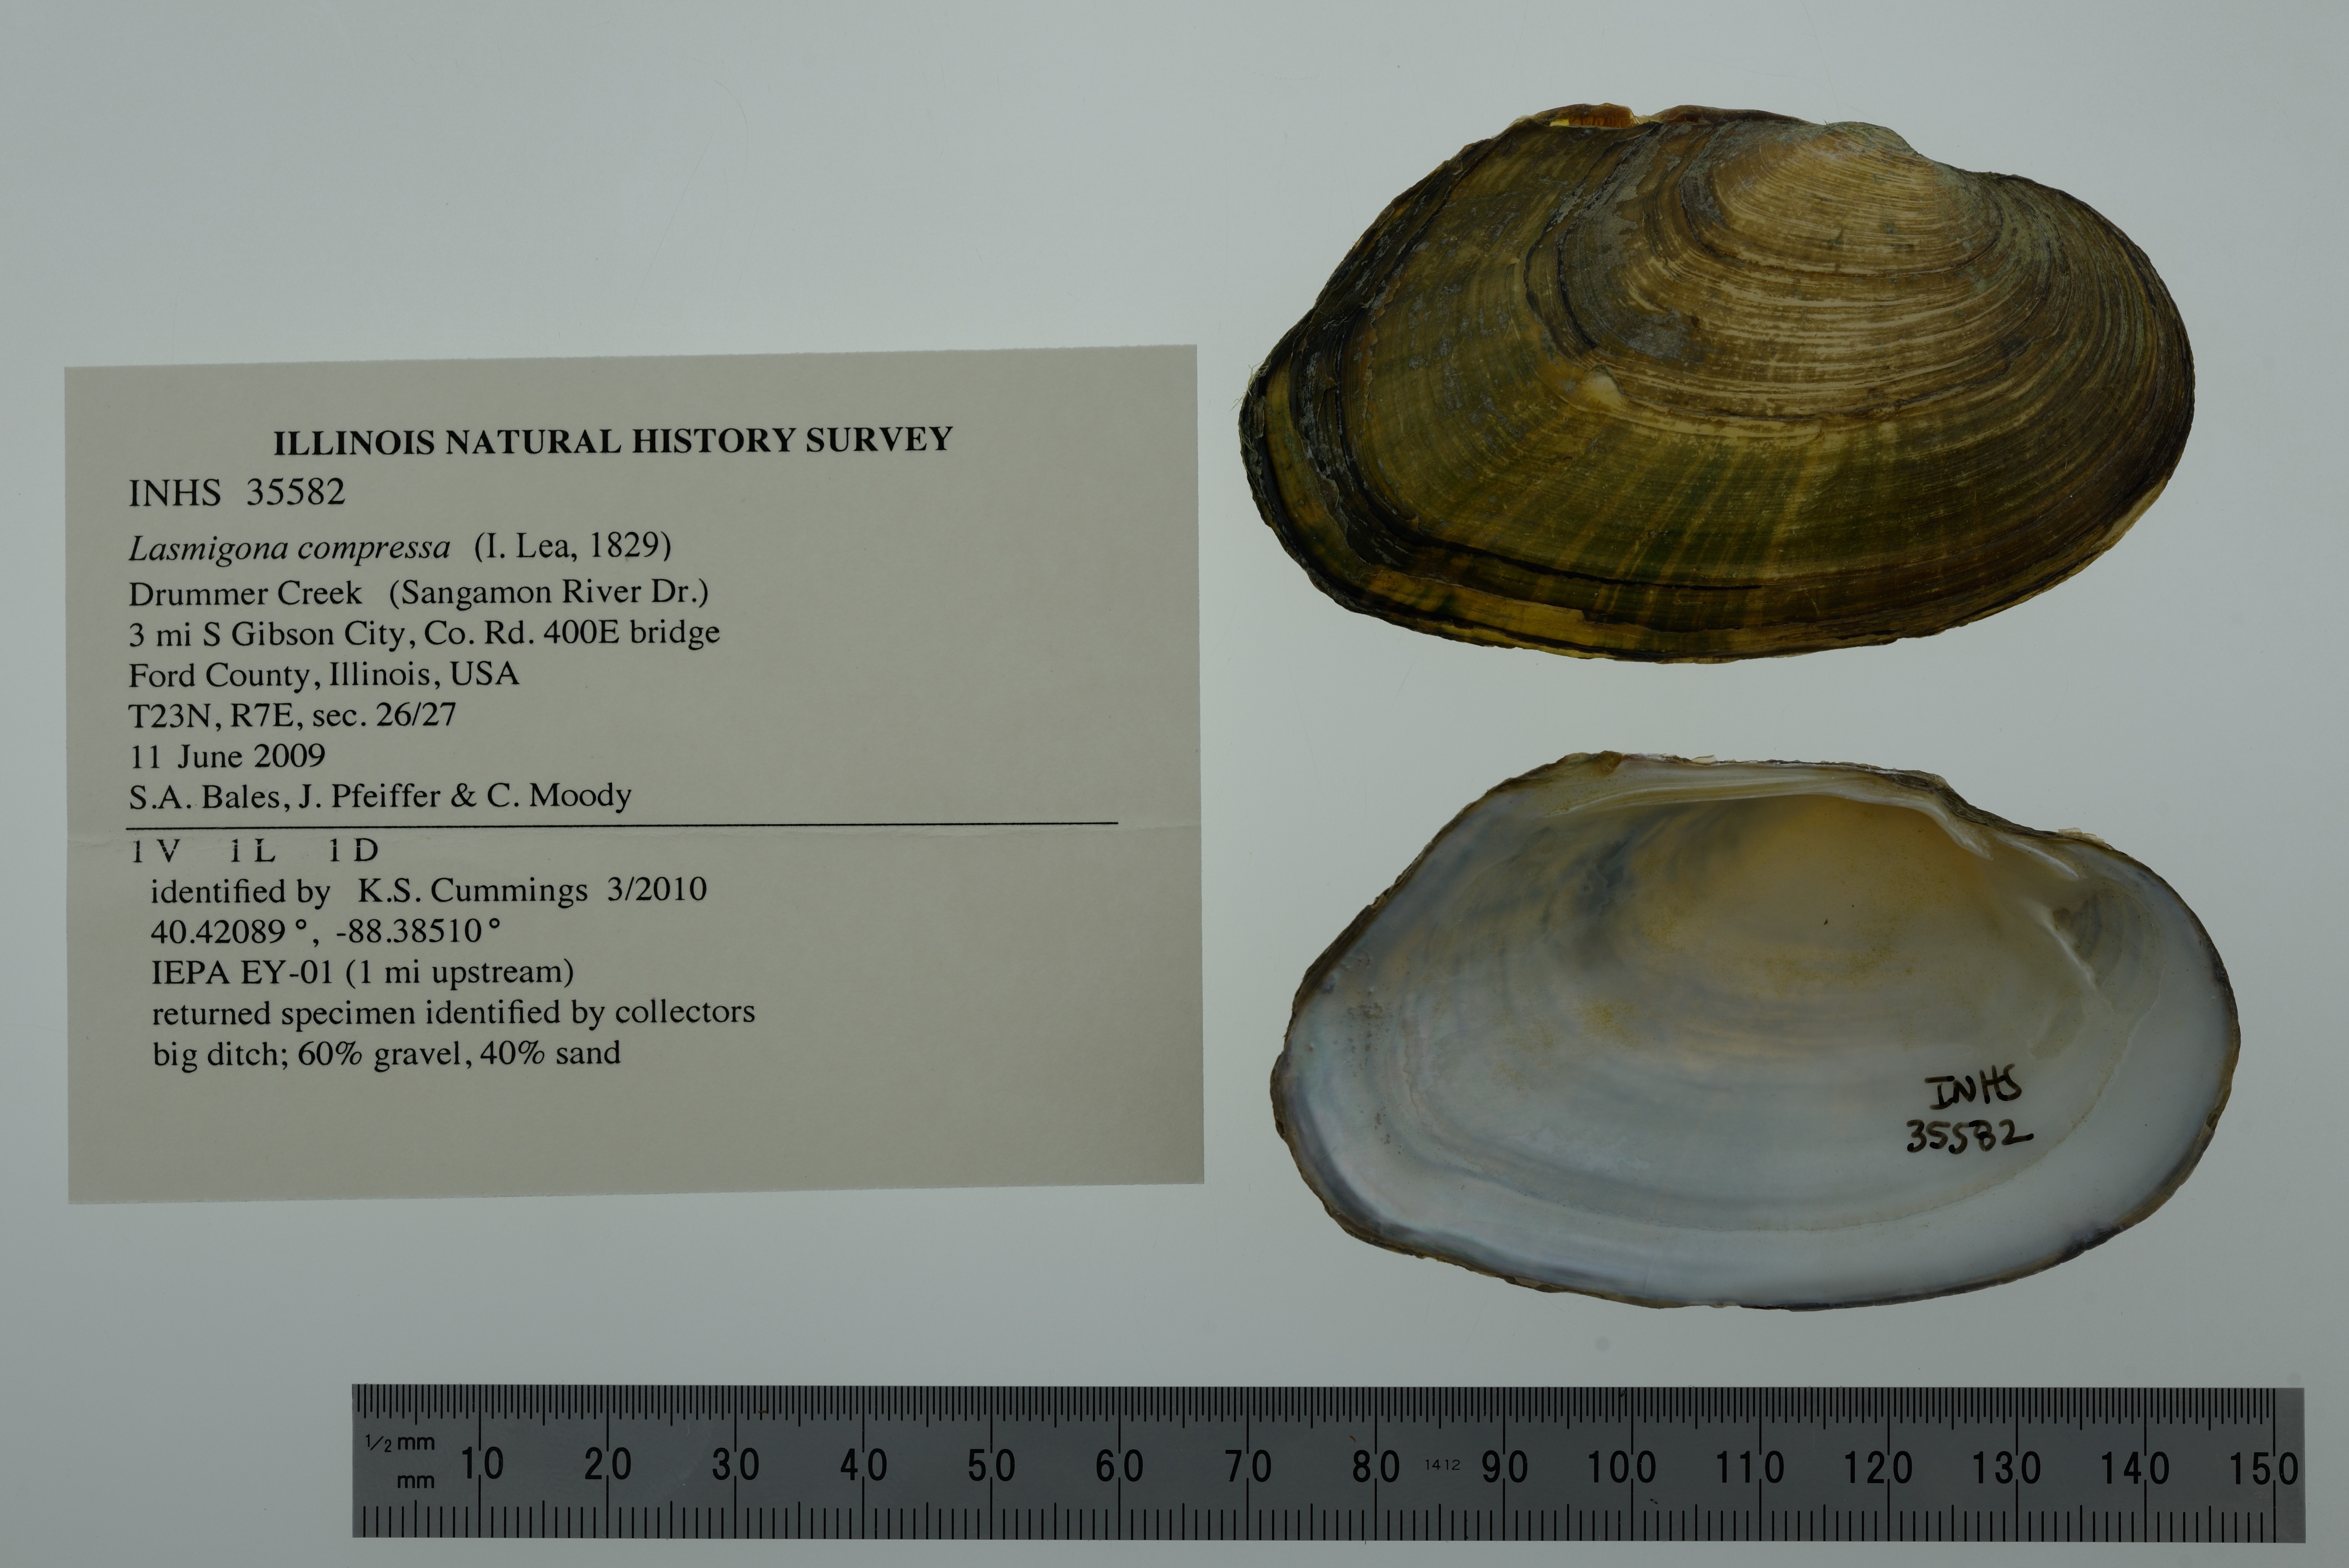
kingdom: Animalia
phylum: Mollusca
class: Bivalvia
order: Unionida
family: Unionidae
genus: Lasmigona
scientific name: Lasmigona compressa
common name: Creek heelsplitter
